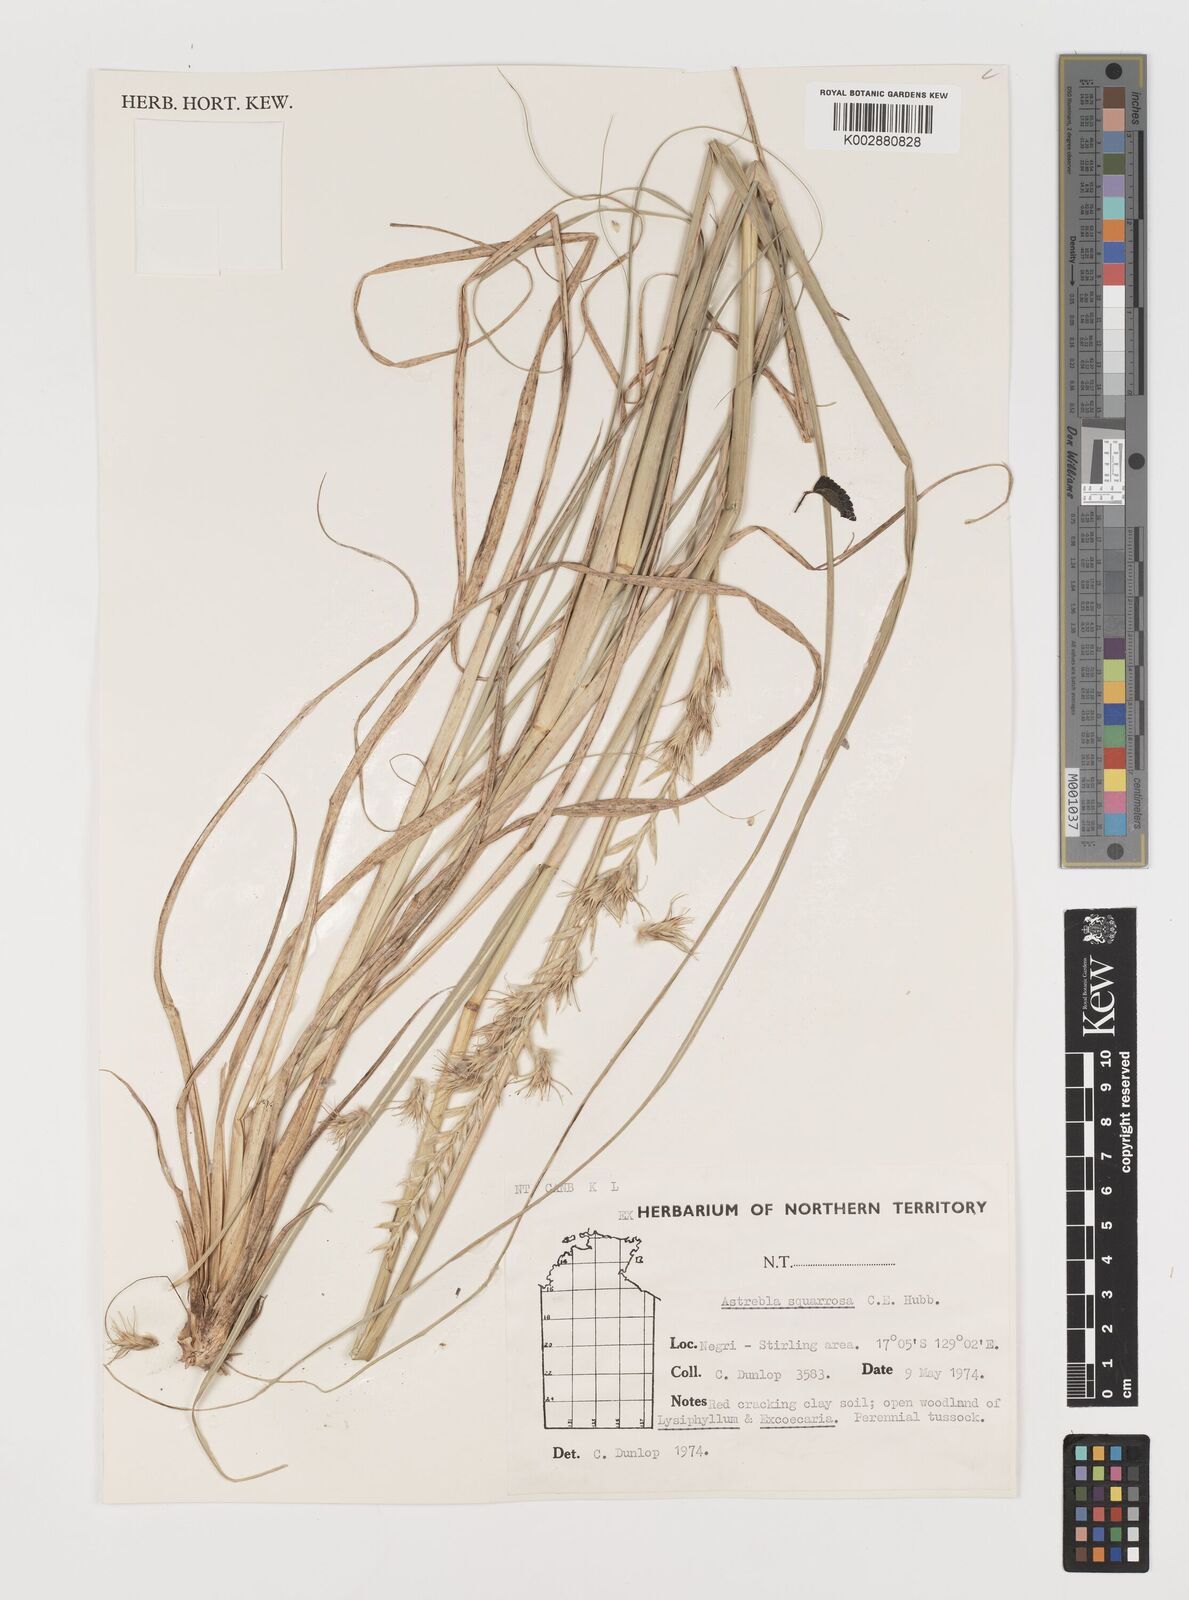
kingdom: Plantae
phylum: Tracheophyta
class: Liliopsida
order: Poales
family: Poaceae
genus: Astrebla
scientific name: Astrebla squarrosa
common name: Wheat-ear mitchell grass
